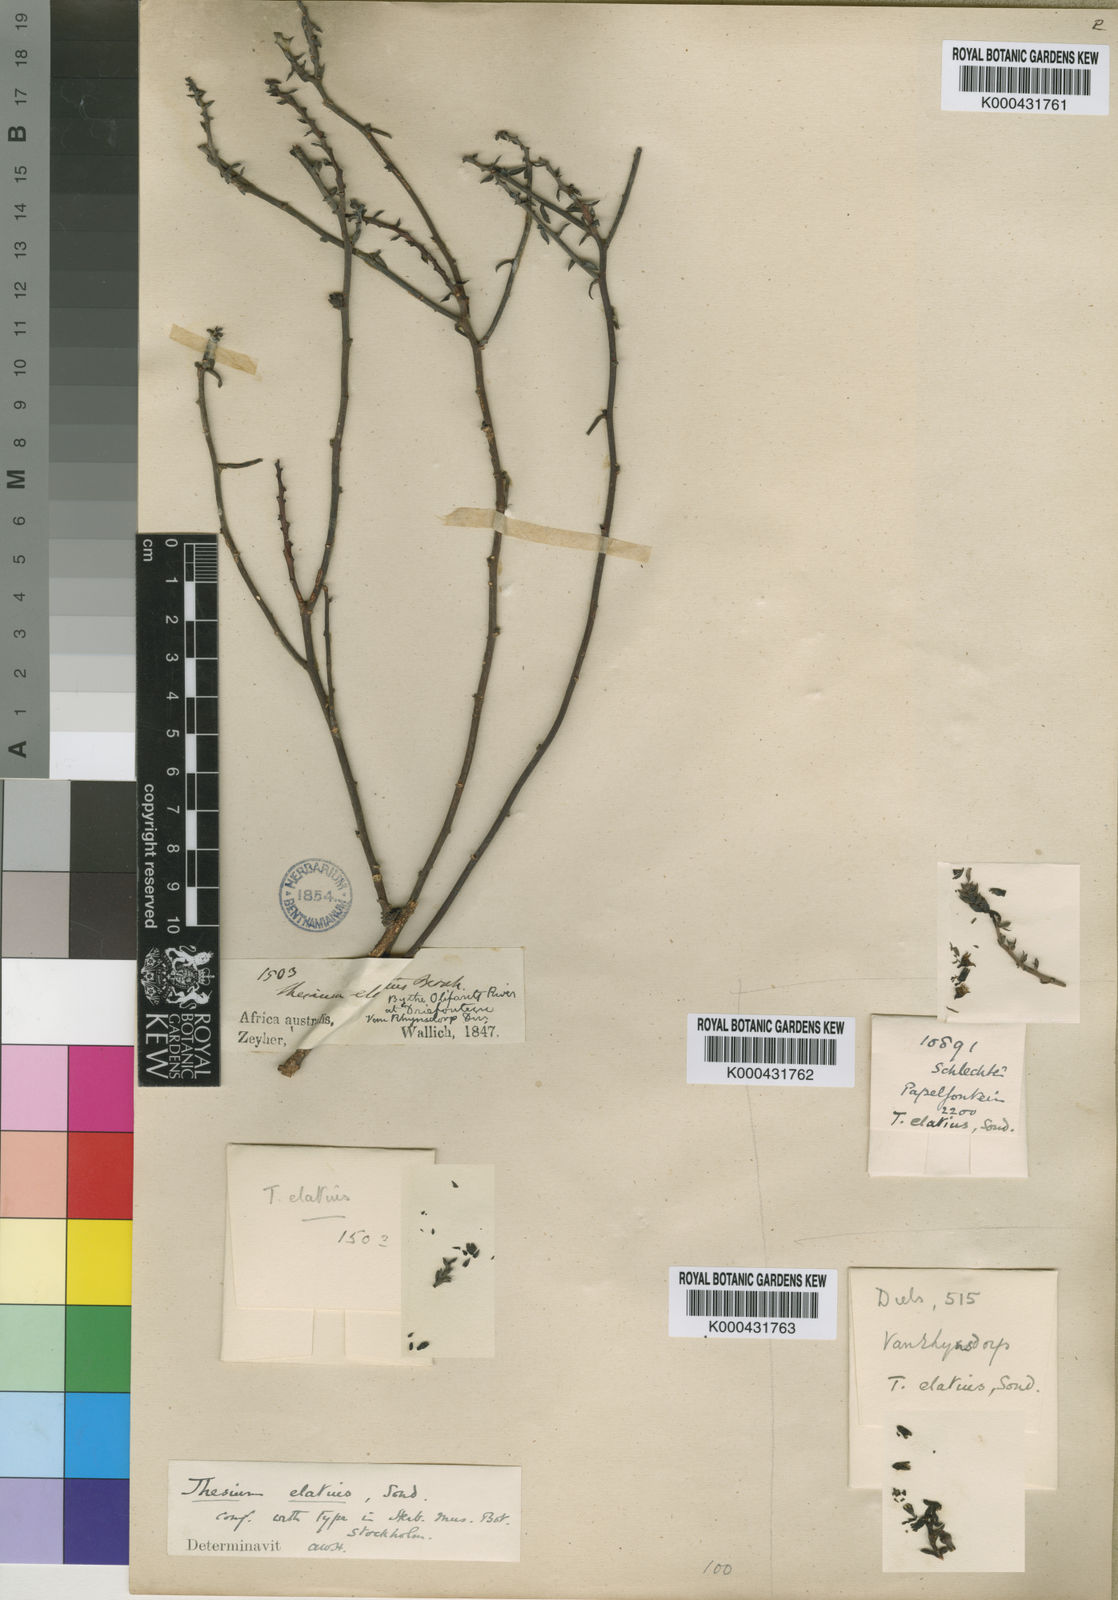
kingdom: Plantae
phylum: Tracheophyta
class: Magnoliopsida
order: Santalales
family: Thesiaceae
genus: Thesium
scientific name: Thesium elatius
